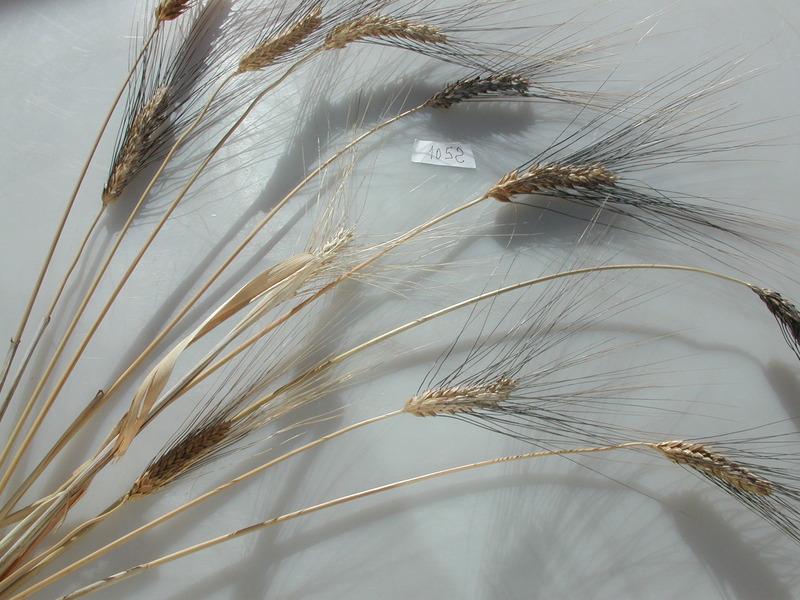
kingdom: Plantae
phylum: Tracheophyta
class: Liliopsida
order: Poales
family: Poaceae
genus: Triticum
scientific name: Triticum turgidum
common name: Wheat
